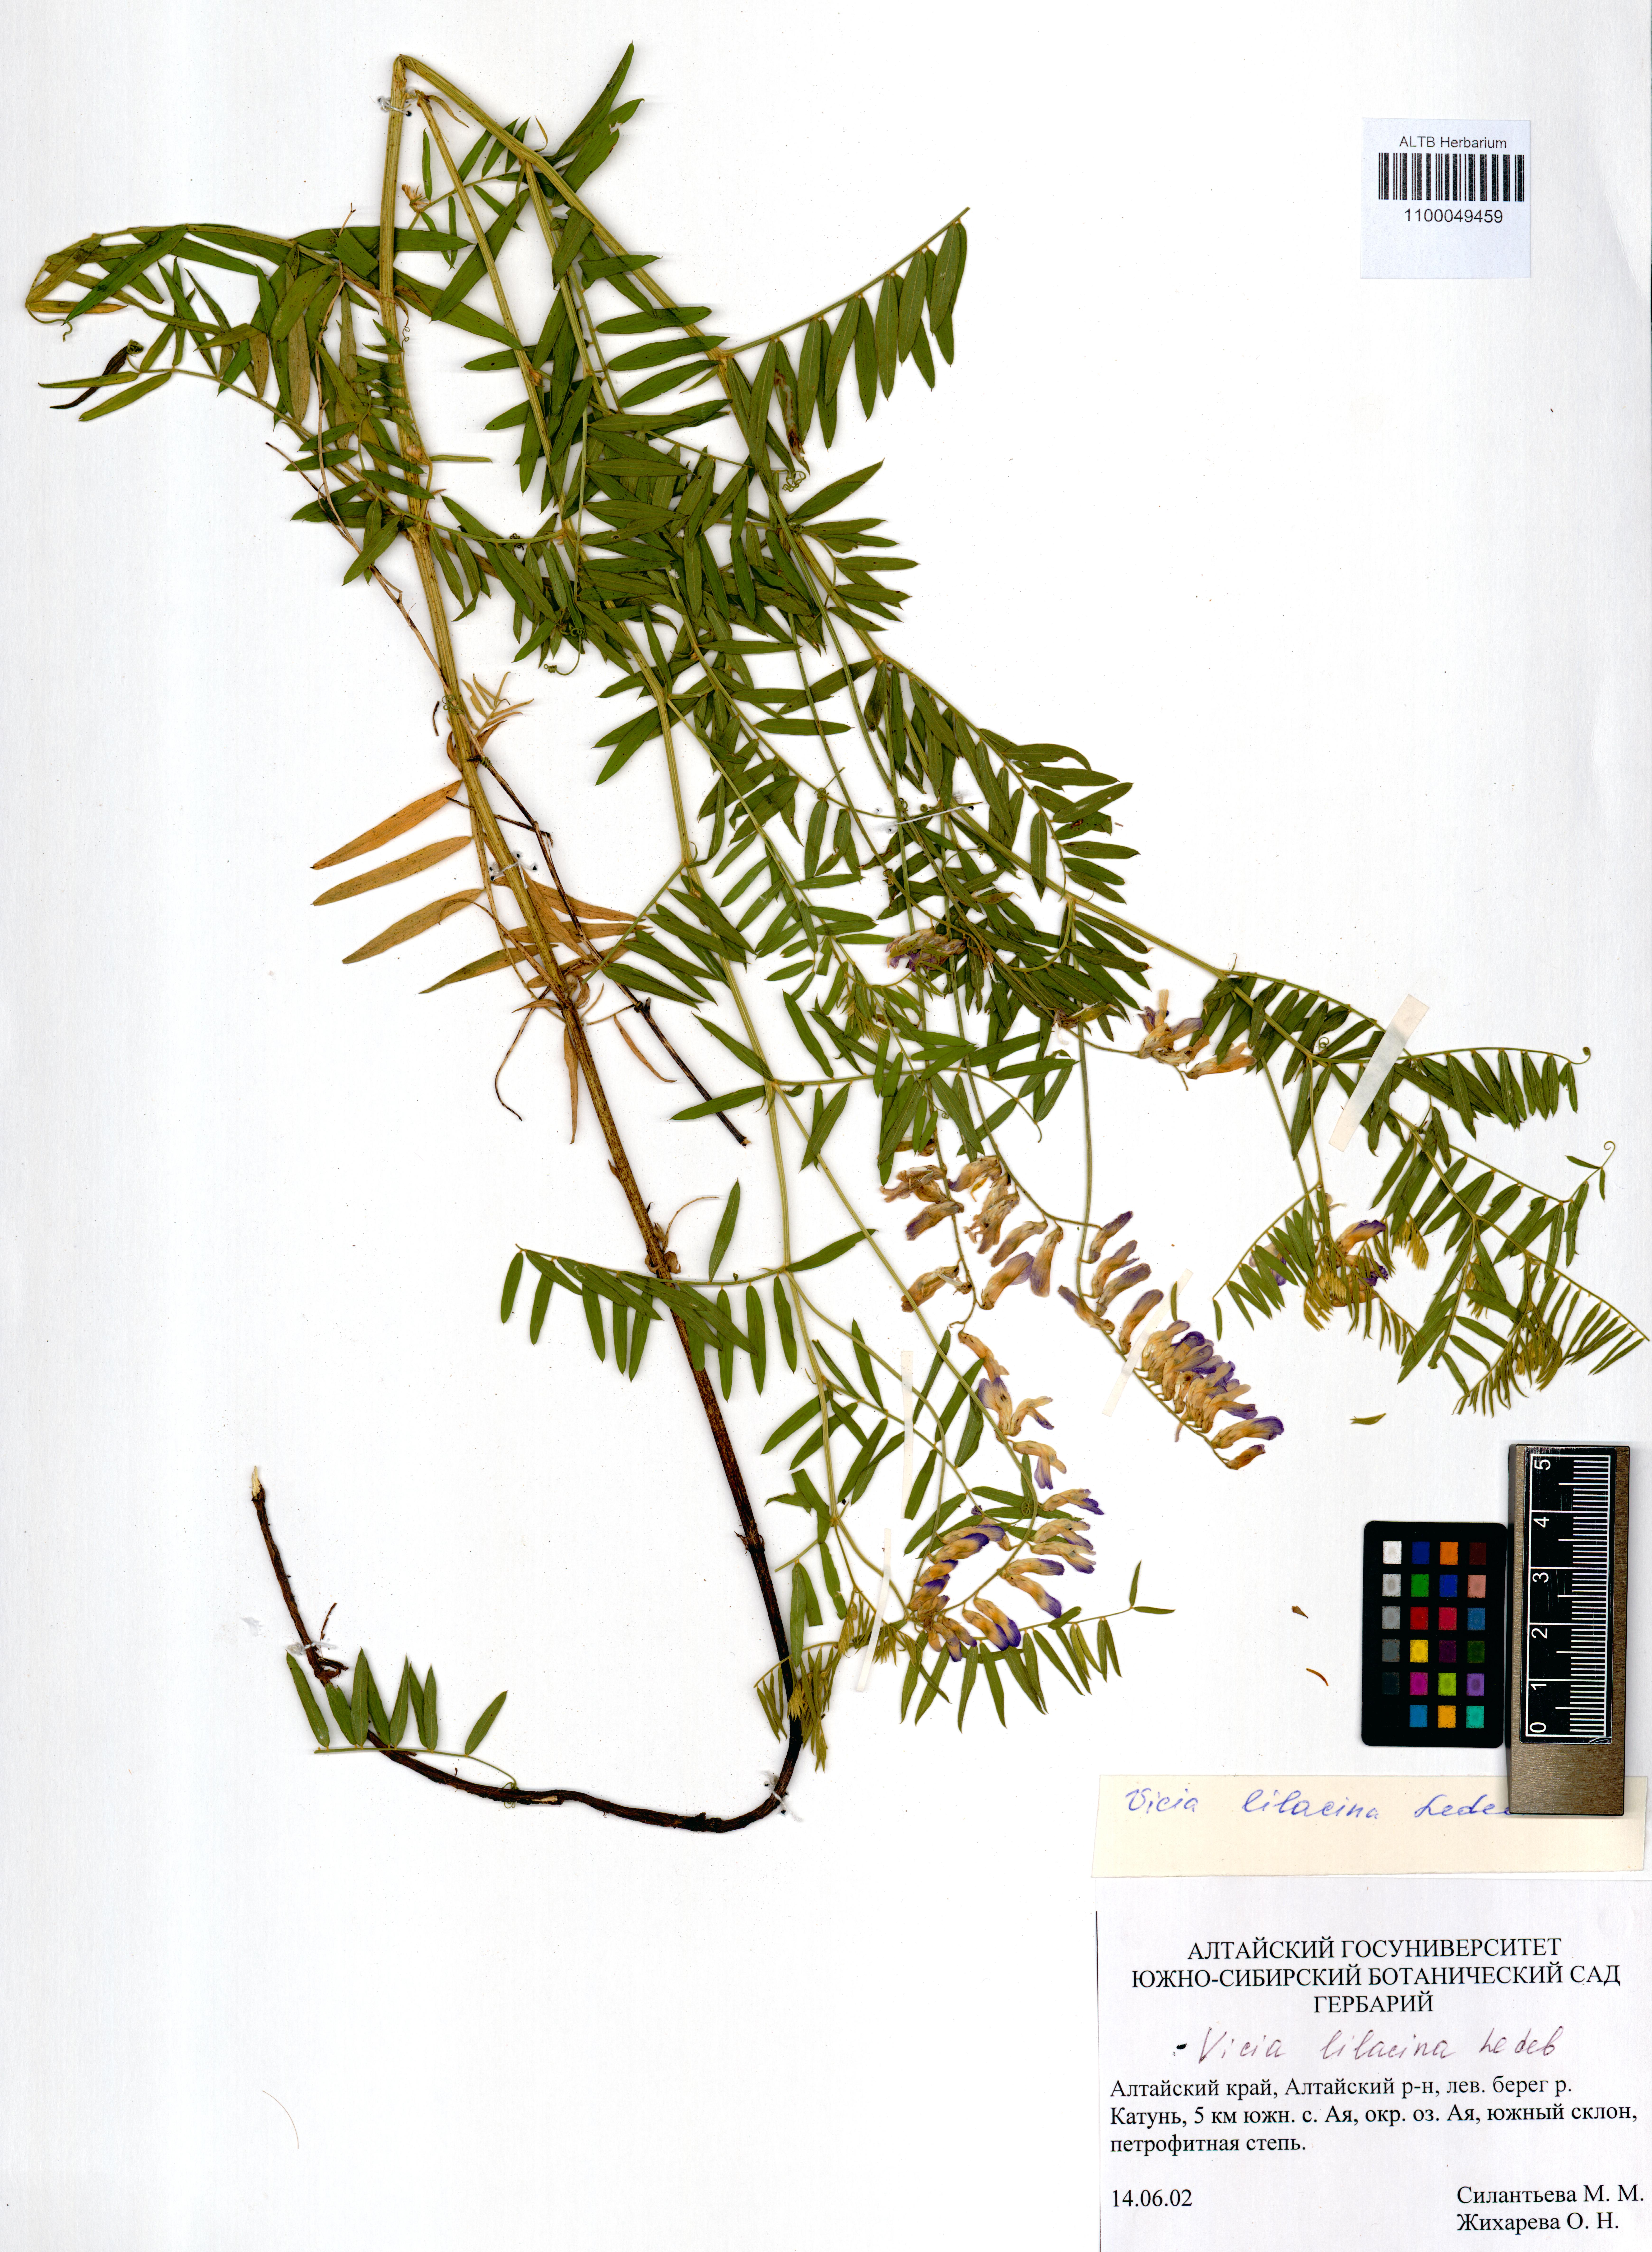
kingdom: Plantae
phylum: Tracheophyta
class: Magnoliopsida
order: Fabales
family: Fabaceae
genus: Vicia
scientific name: Vicia lilacina
